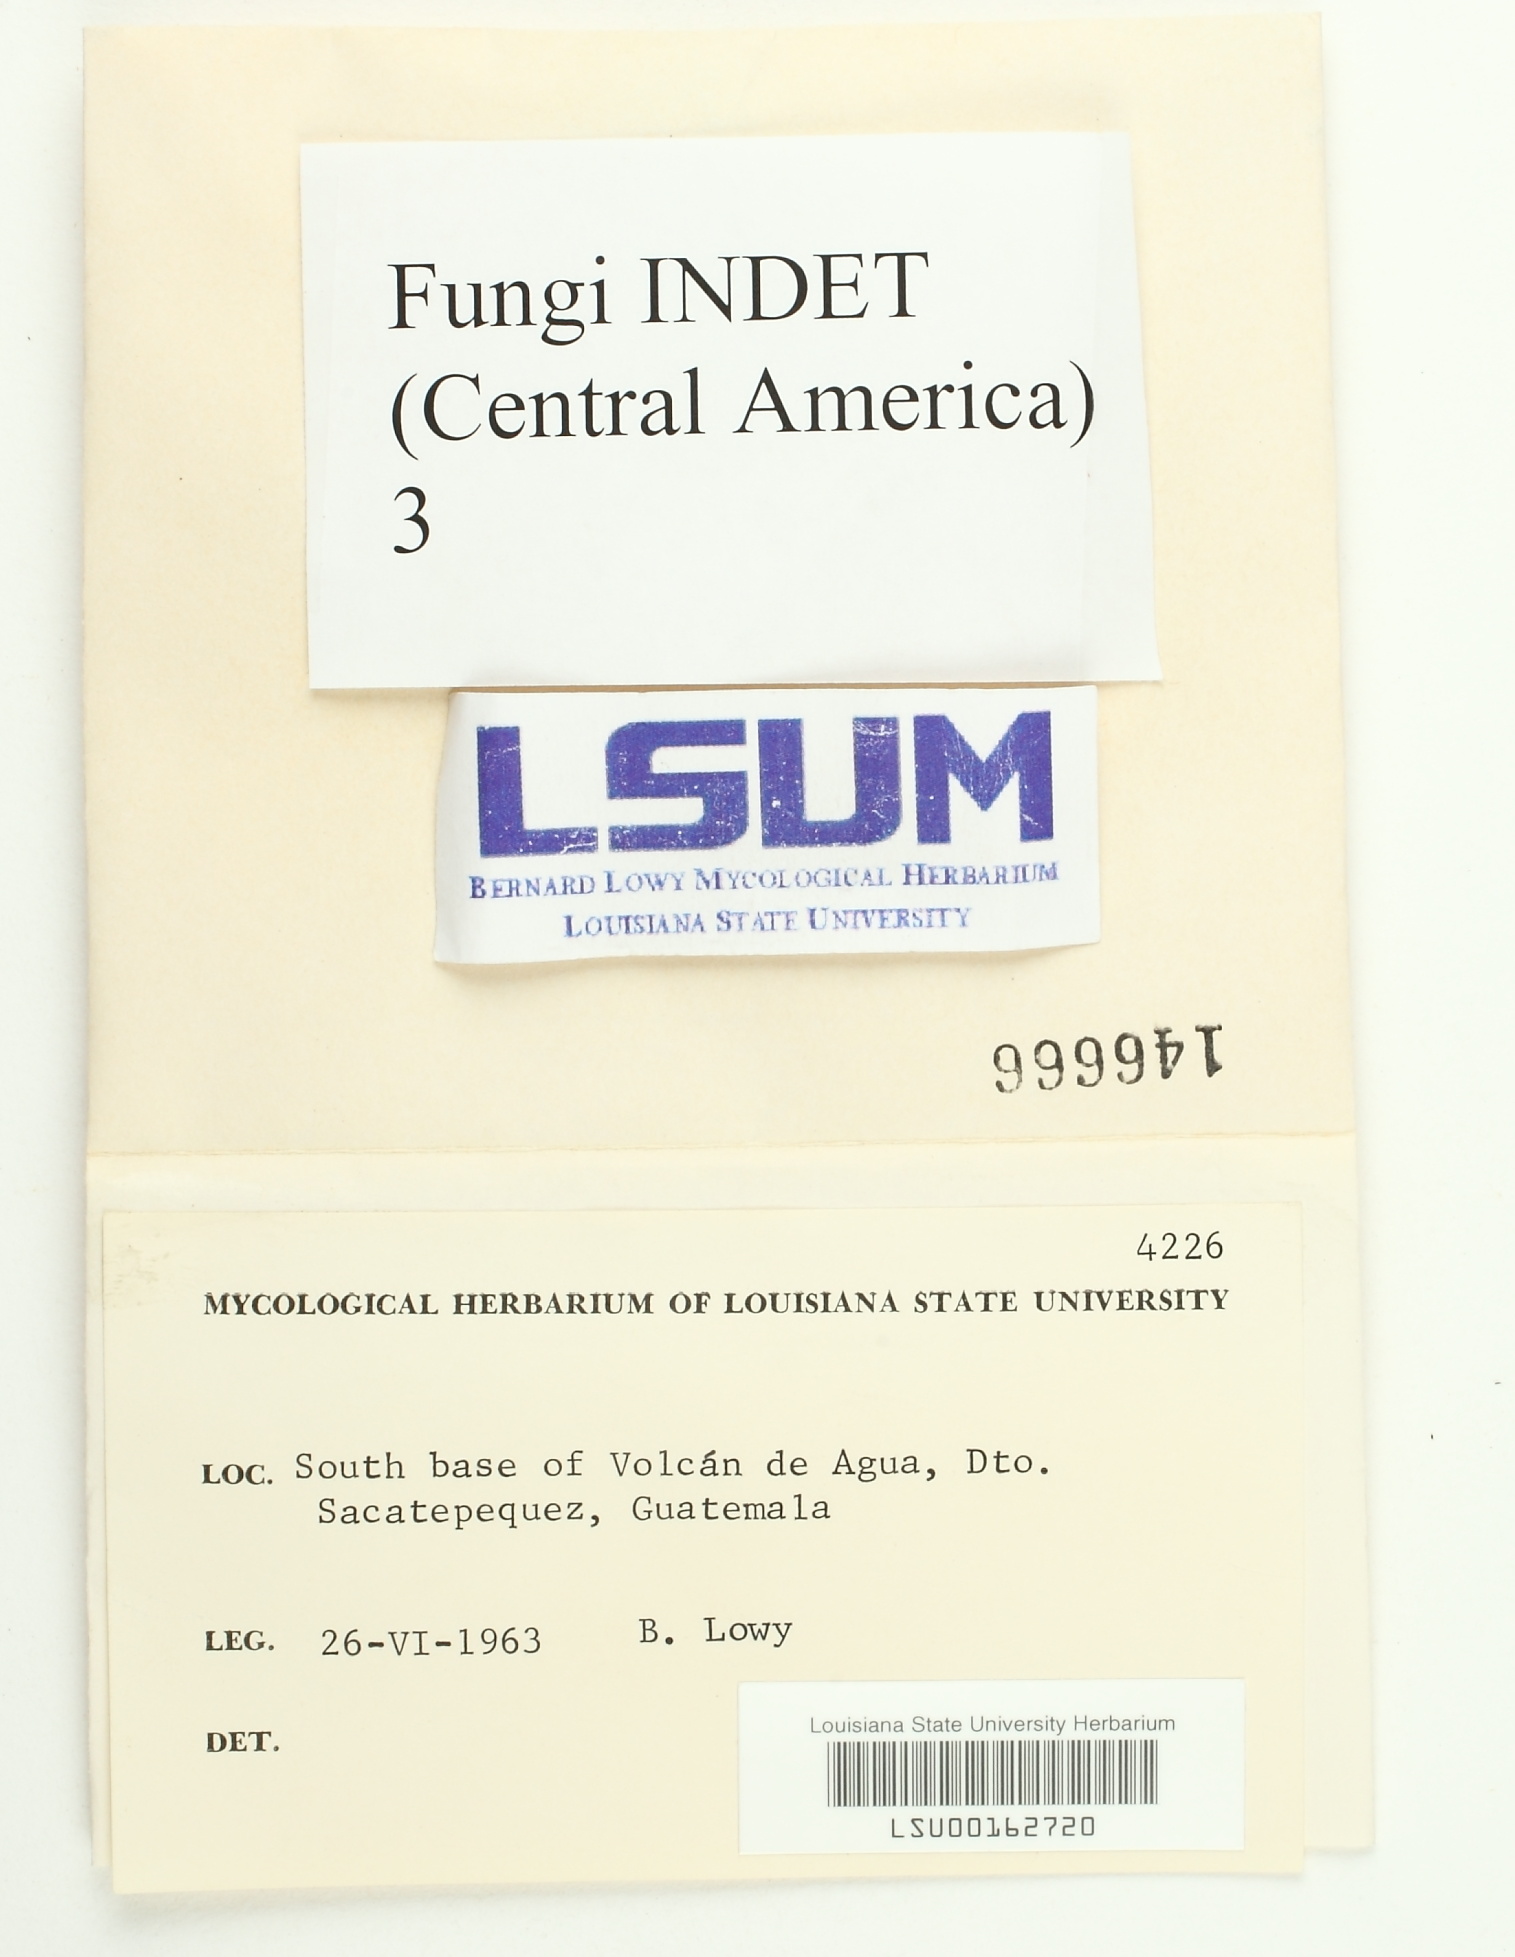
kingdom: Fungi
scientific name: Fungi
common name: Fungi
